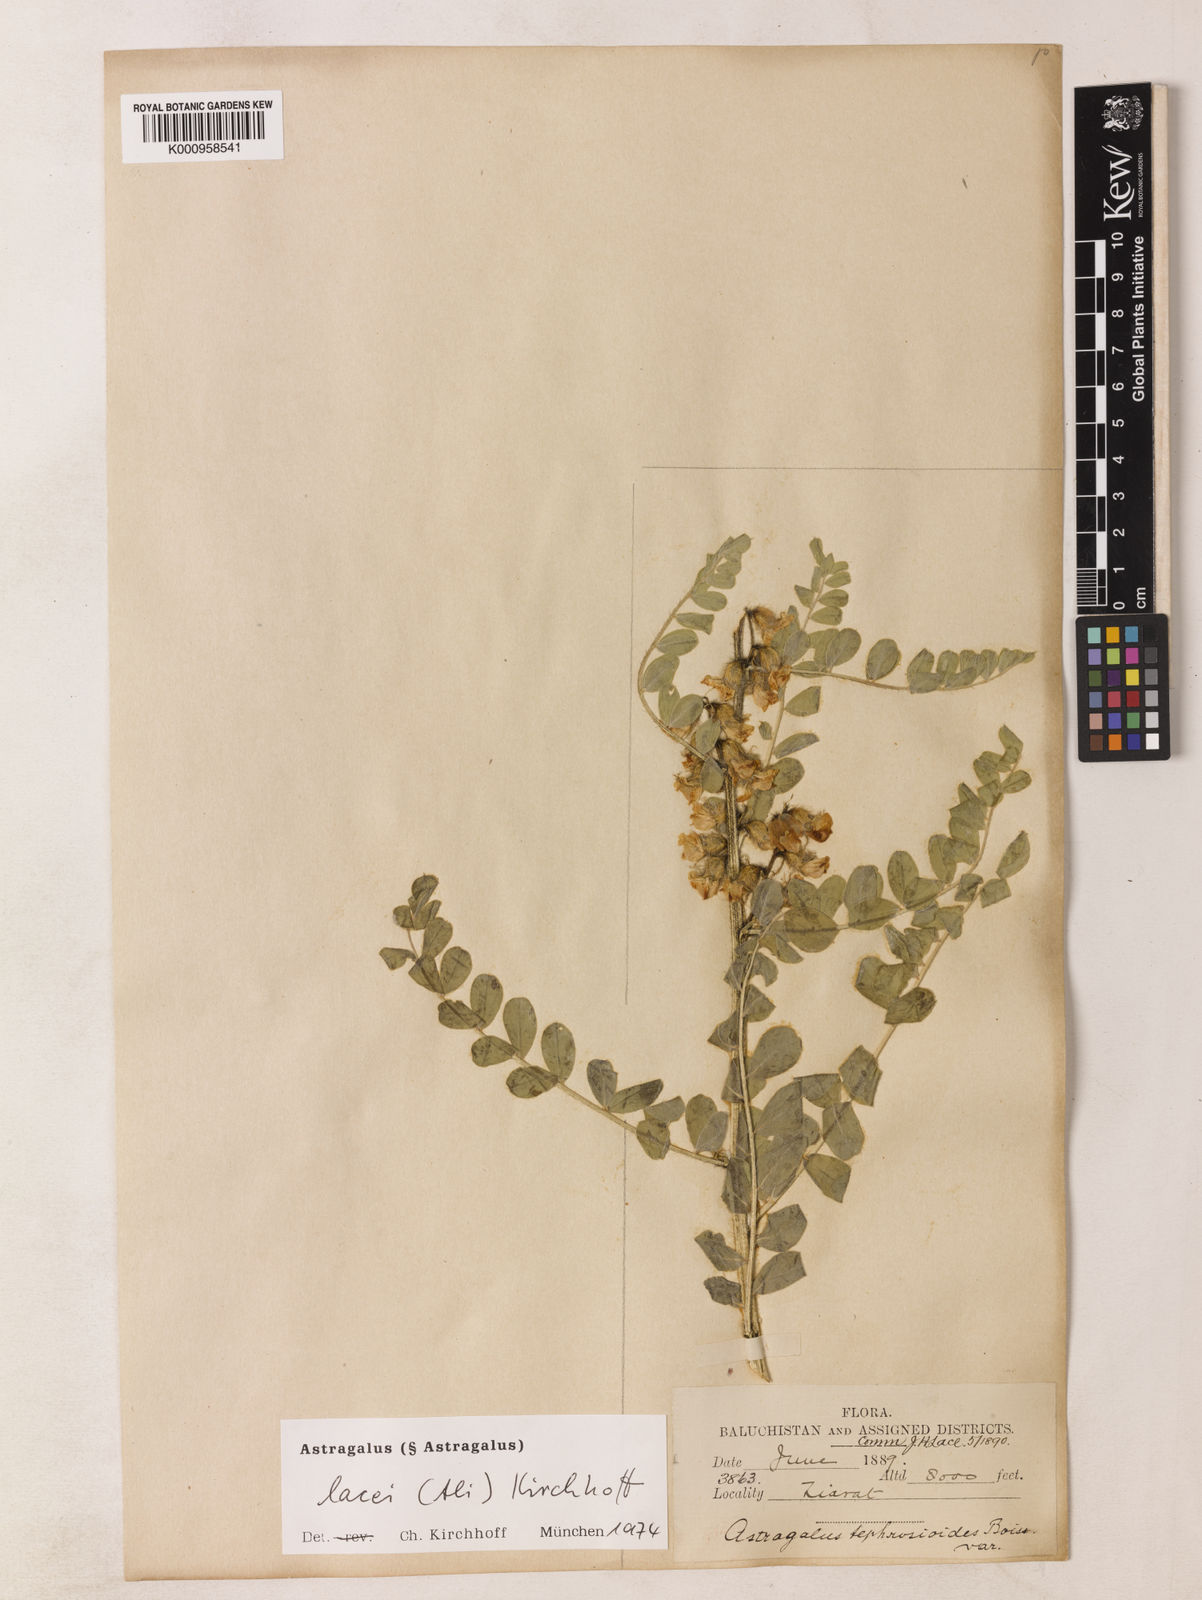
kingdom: Plantae
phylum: Tracheophyta
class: Magnoliopsida
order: Fabales
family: Fabaceae
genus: Astragalus
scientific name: Astragalus lacei
